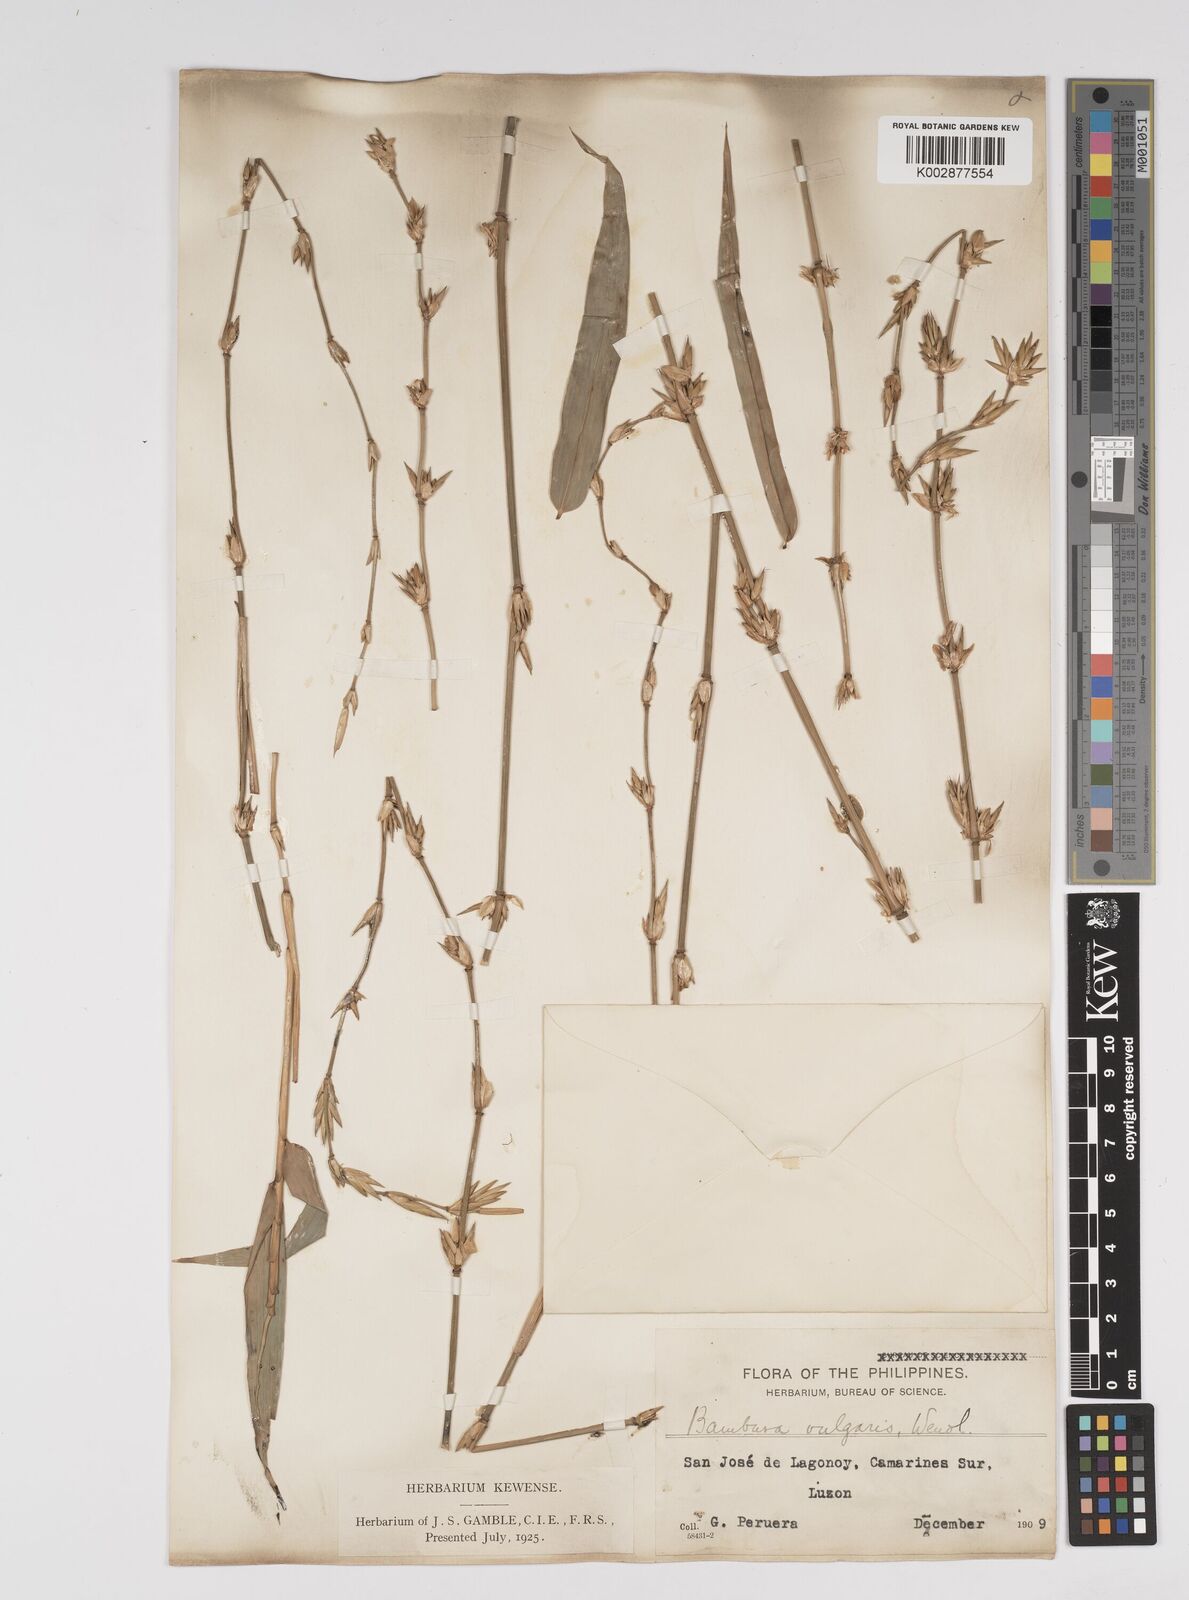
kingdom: Plantae
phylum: Tracheophyta
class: Liliopsida
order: Poales
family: Poaceae
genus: Bambusa
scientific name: Bambusa vulgaris
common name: Common bamboo
